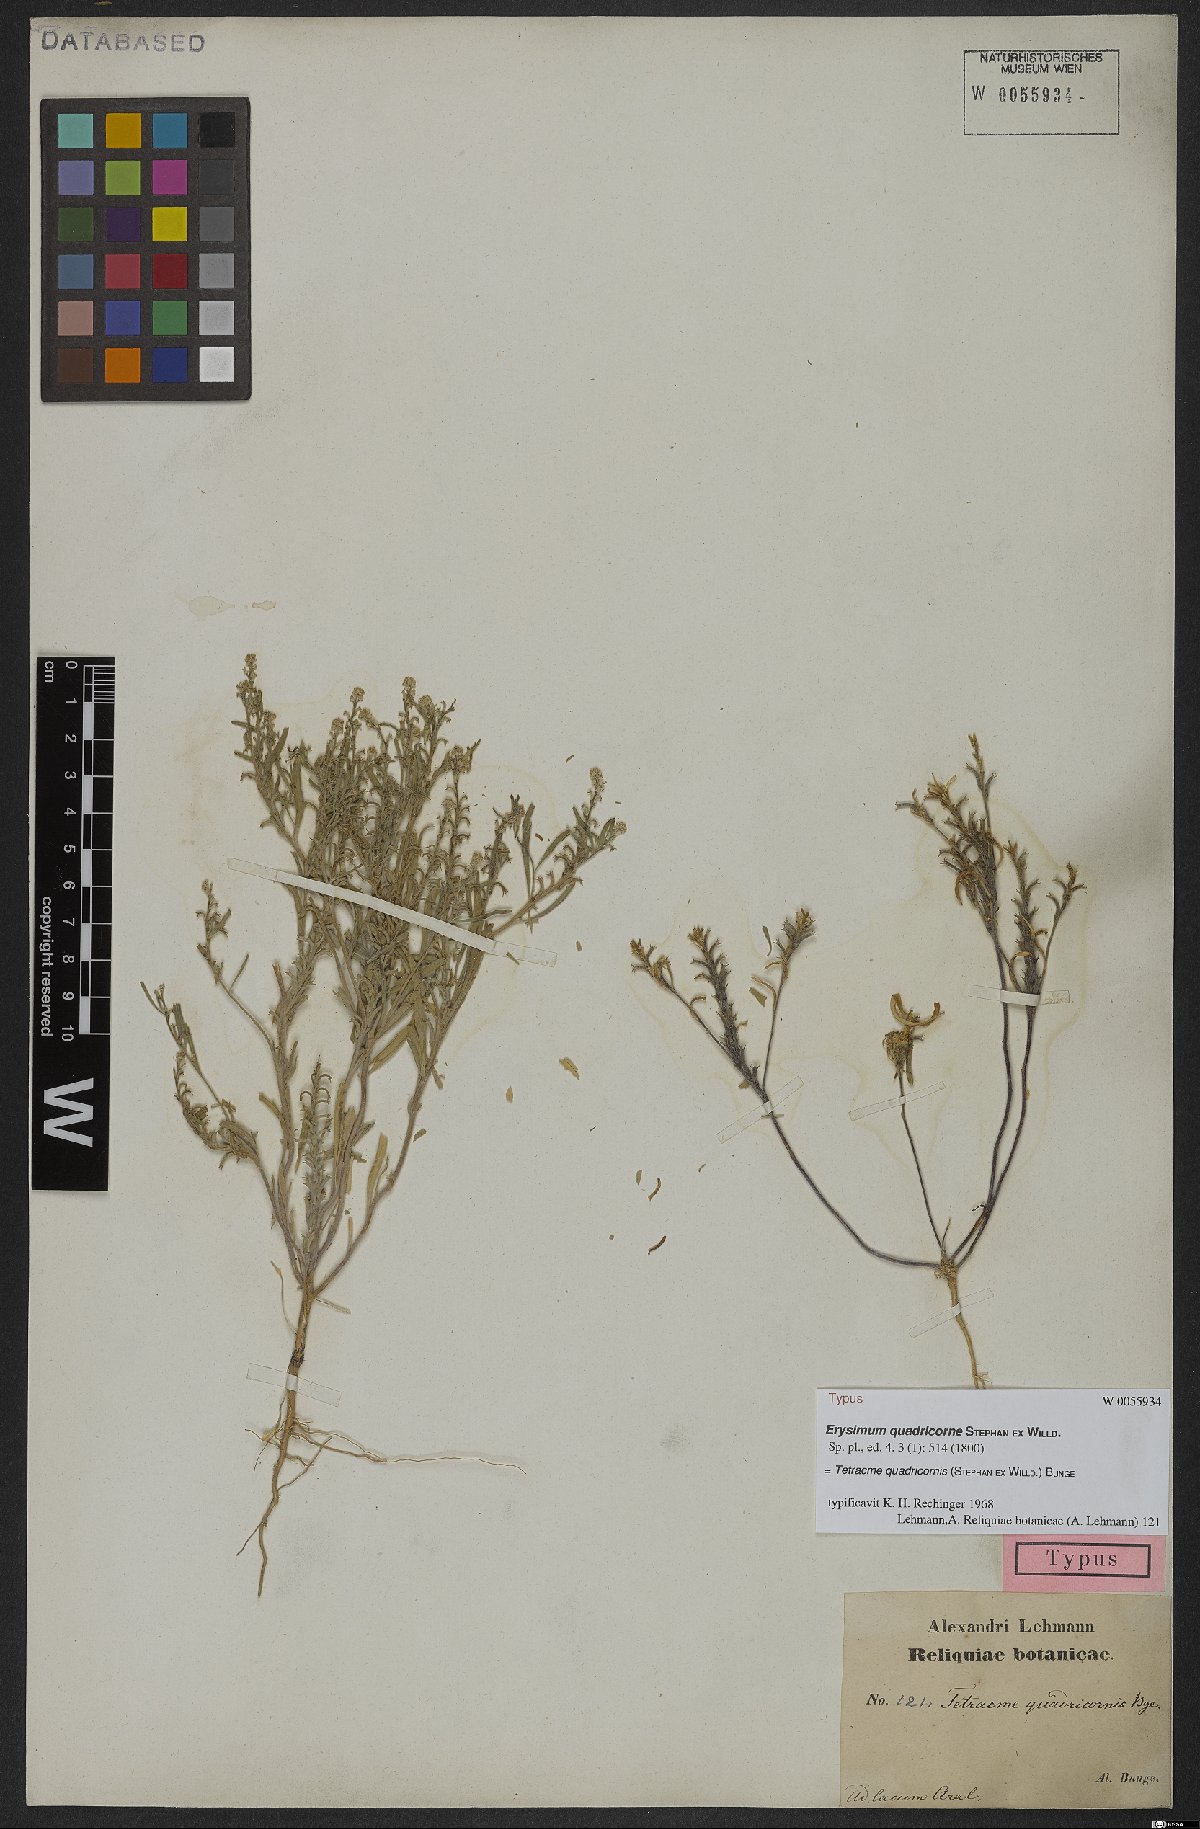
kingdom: Plantae
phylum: Tracheophyta
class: Magnoliopsida
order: Brassicales
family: Brassicaceae
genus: Tetracme
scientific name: Tetracme quadricornis
